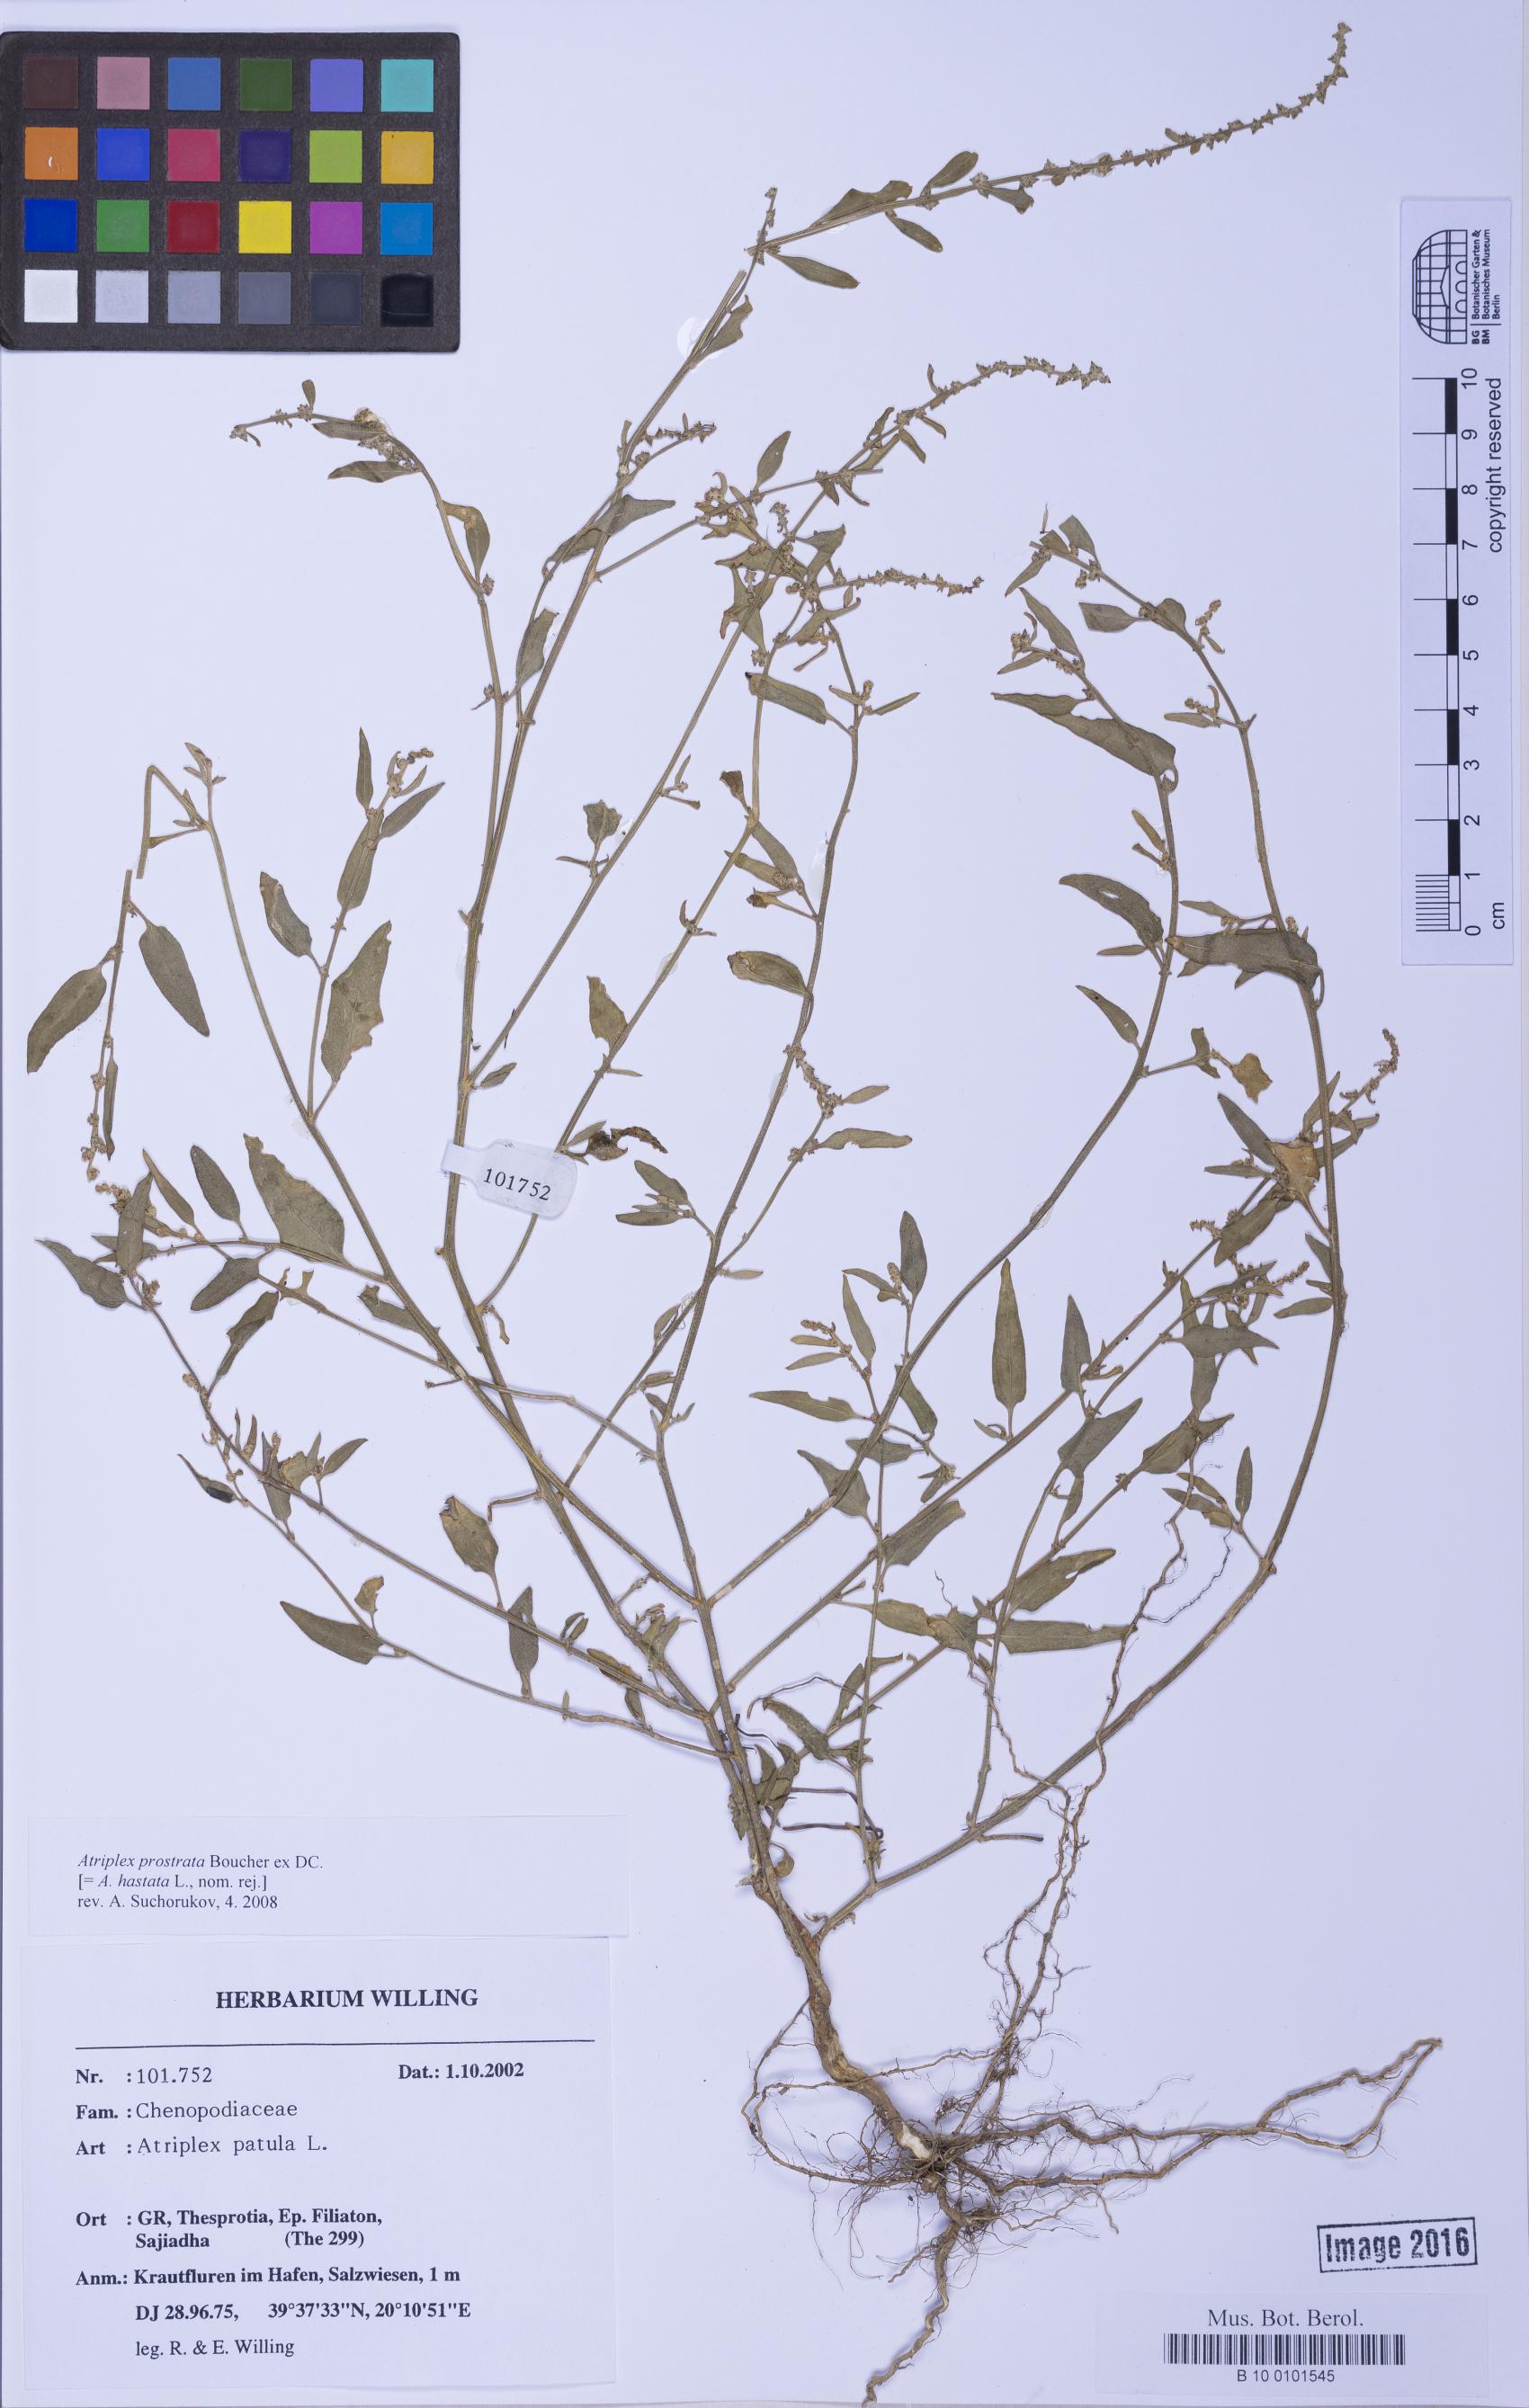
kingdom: Plantae
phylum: Tracheophyta
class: Magnoliopsida
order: Caryophyllales
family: Amaranthaceae
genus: Atriplex
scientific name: Atriplex prostrata
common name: Spear-leaved orache
